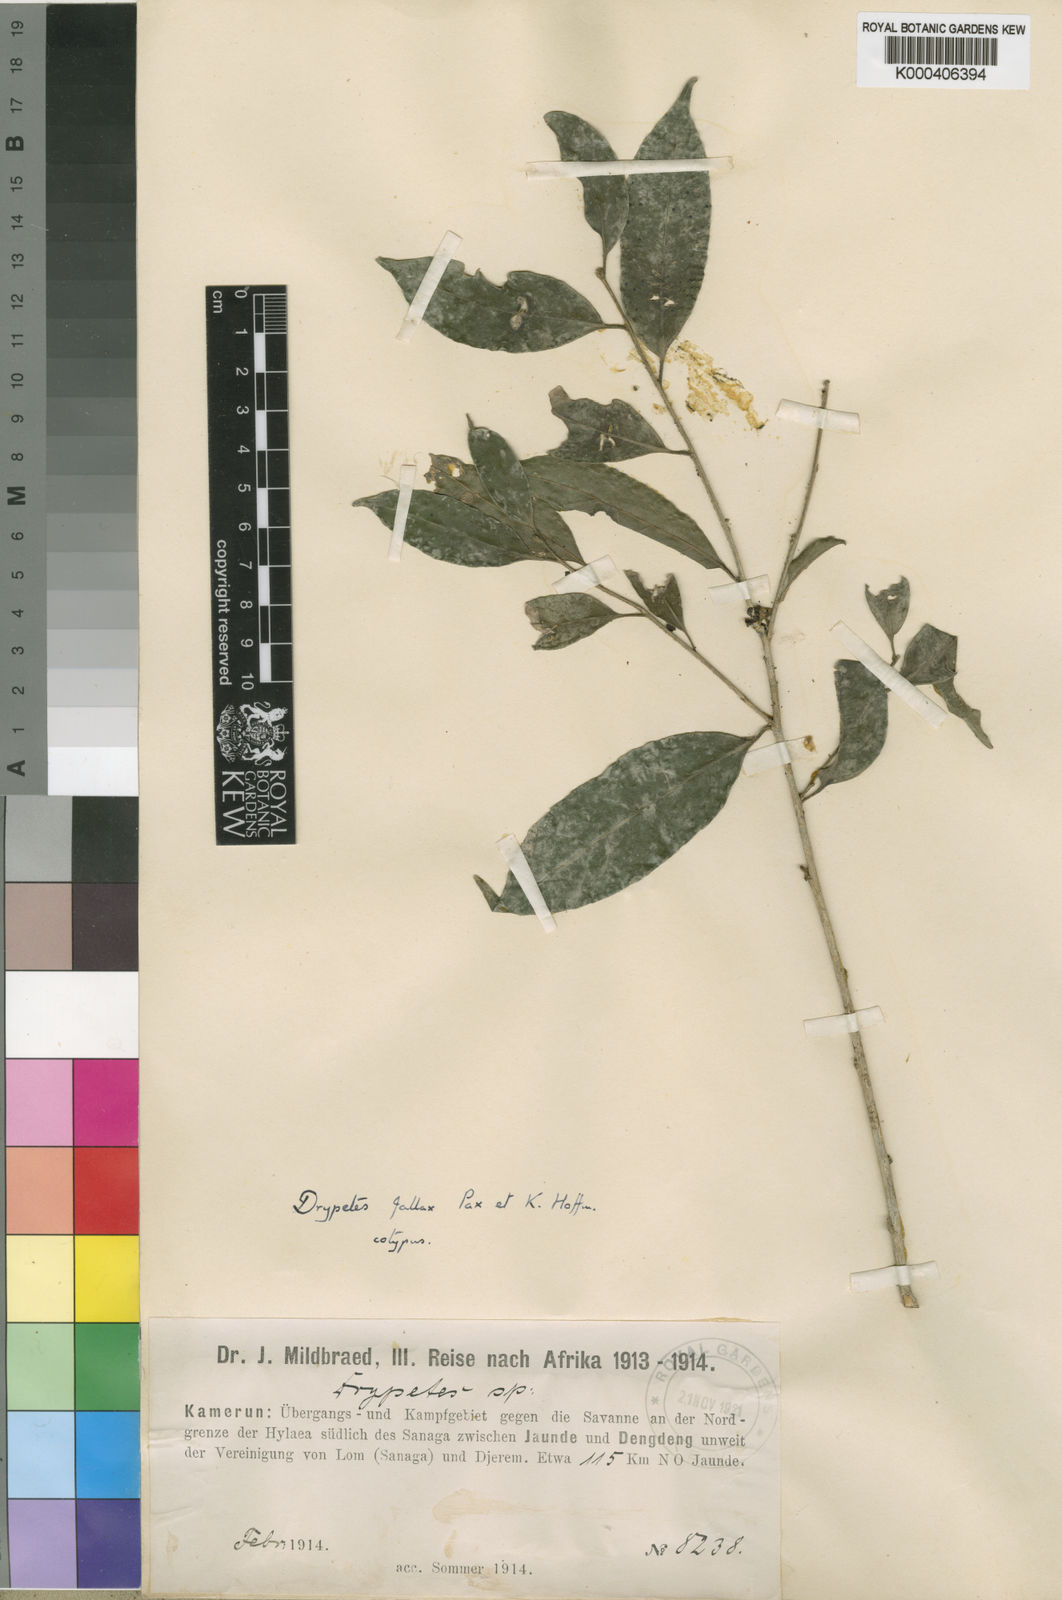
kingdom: Plantae
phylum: Tracheophyta
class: Magnoliopsida
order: Malpighiales
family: Putranjivaceae
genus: Drypetes
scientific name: Drypetes fallax
